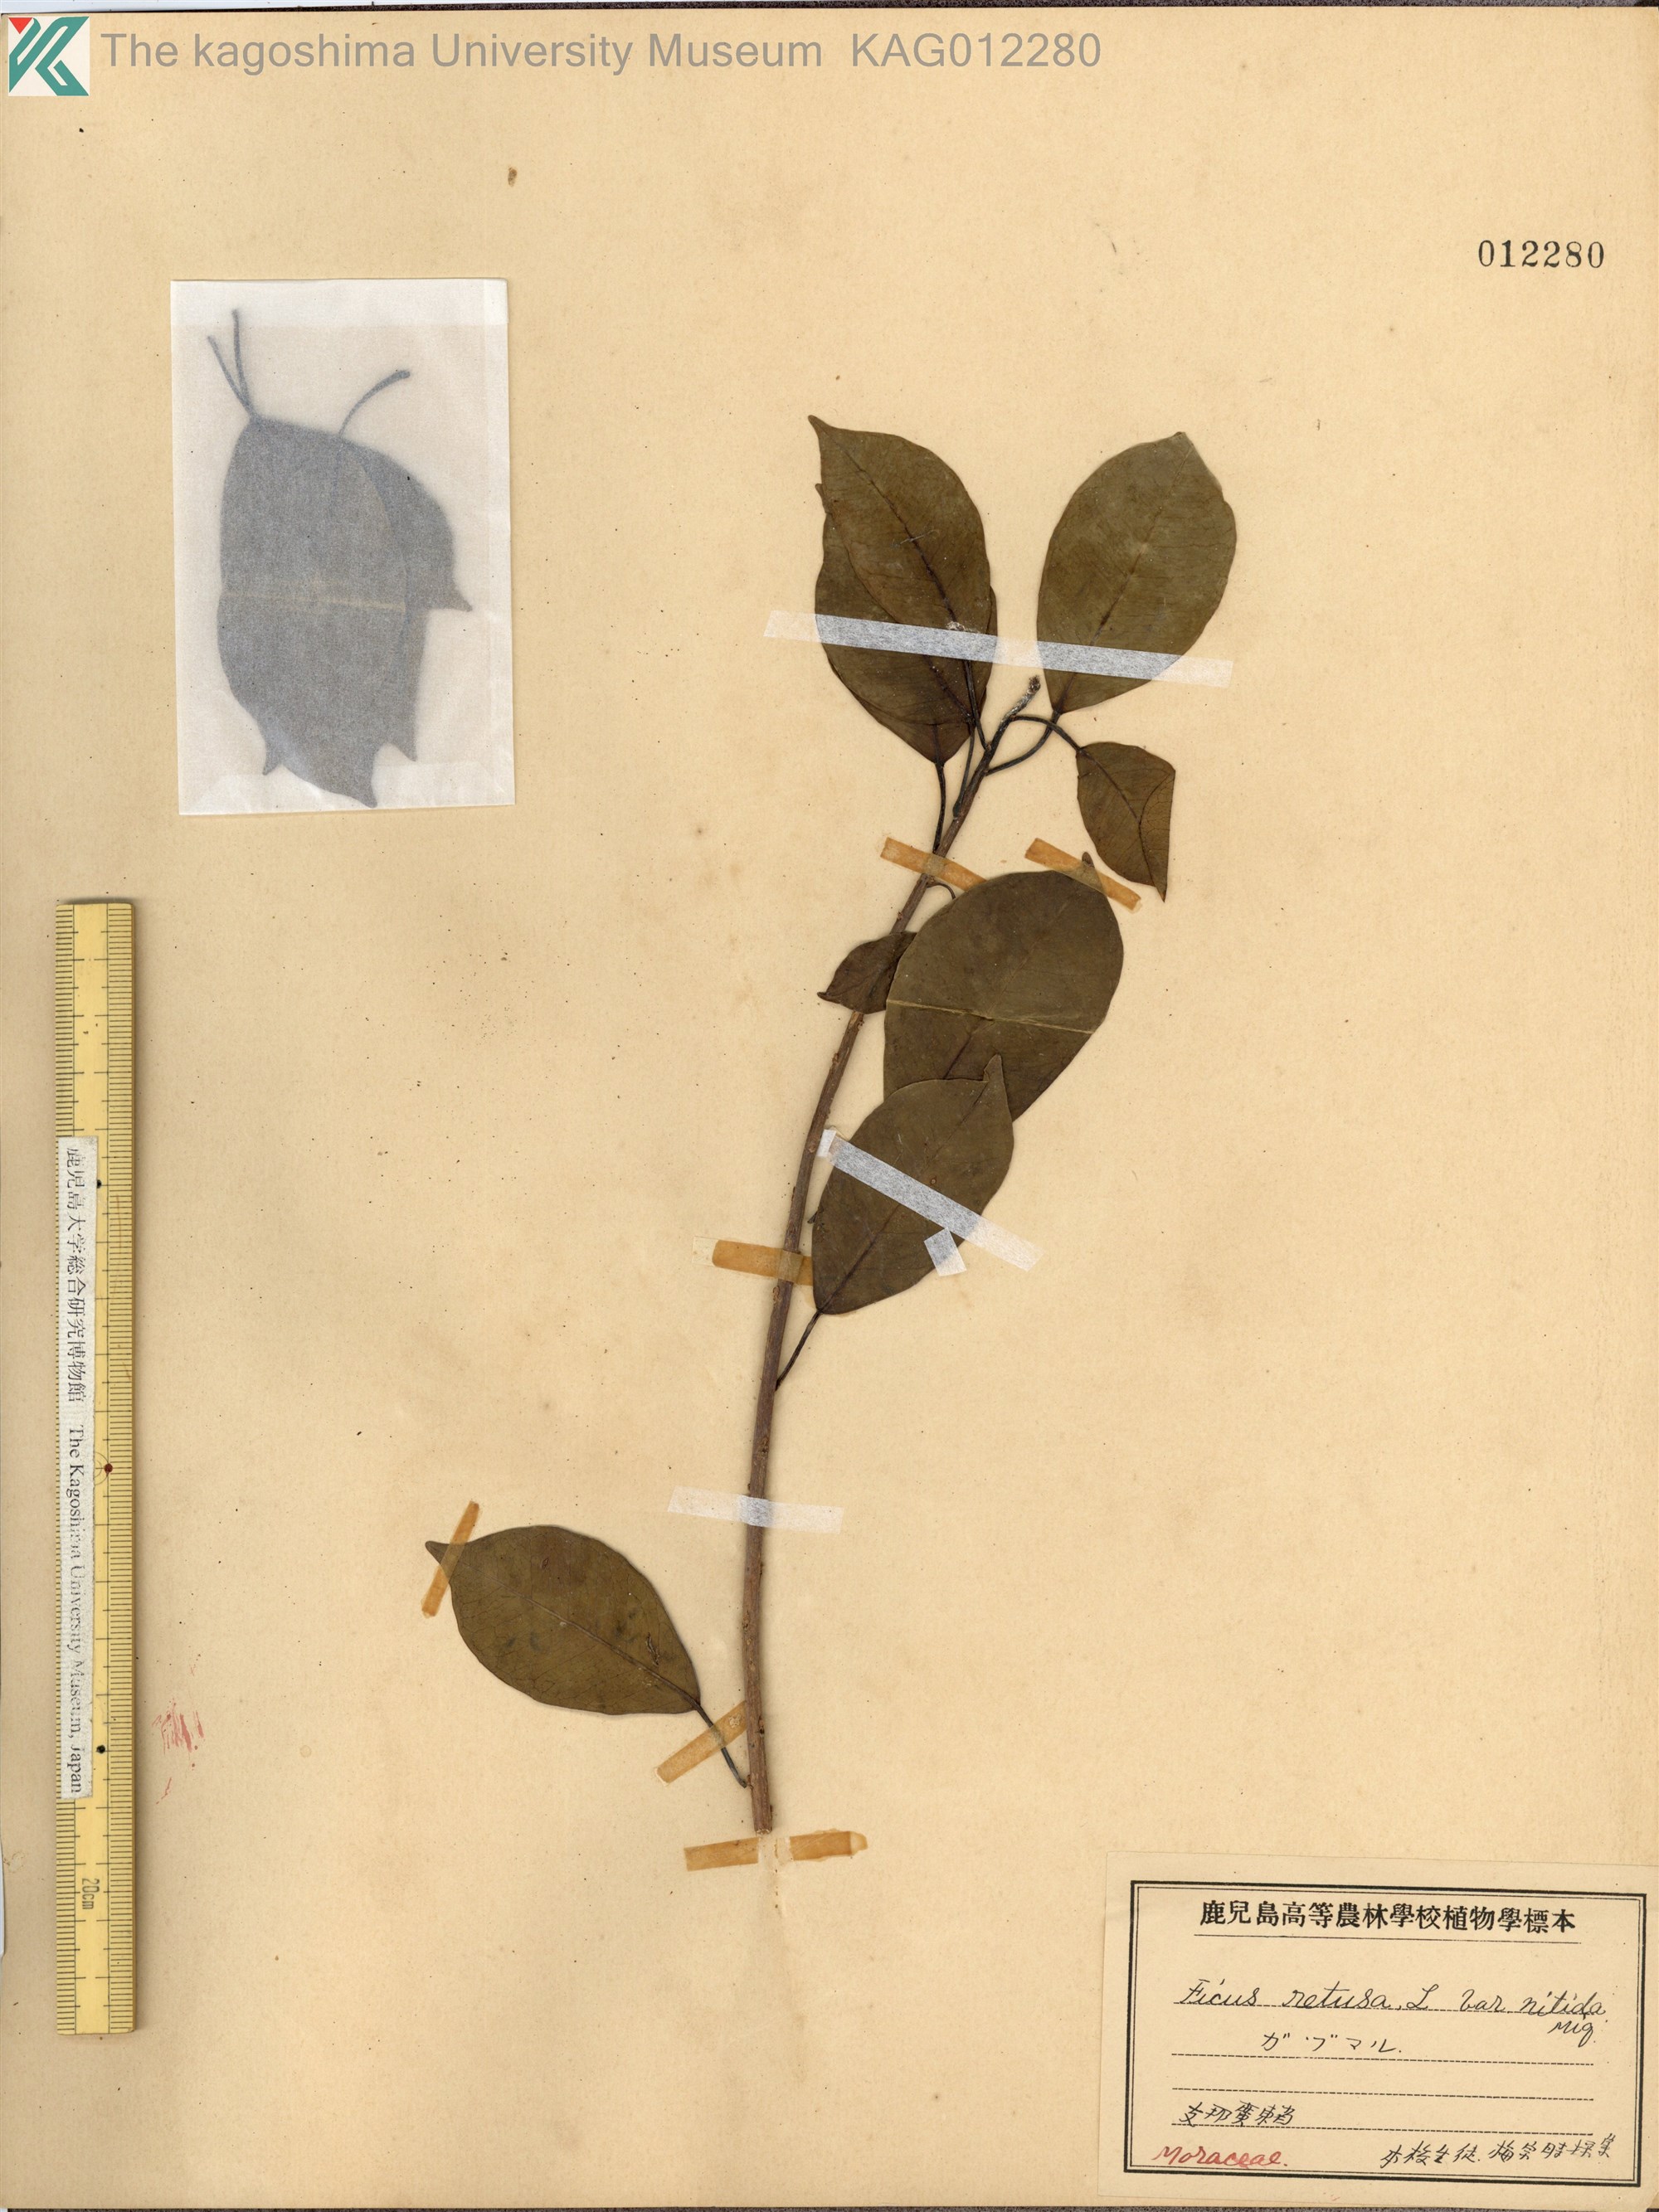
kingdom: Plantae
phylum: Tracheophyta
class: Magnoliopsida
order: Malpighiales
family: Euphorbiaceae
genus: Excoecaria
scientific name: Excoecaria agallocha
